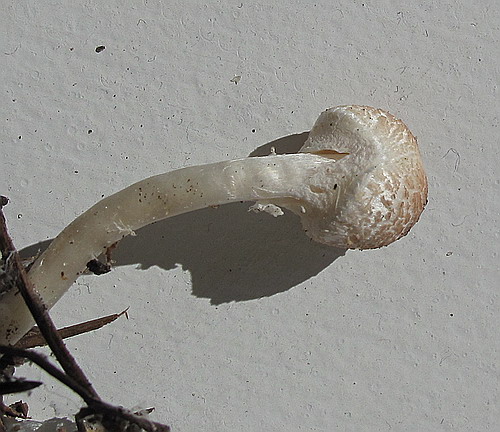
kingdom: Fungi
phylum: Basidiomycota
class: Agaricomycetes
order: Agaricales
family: Agaricaceae
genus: Lepiota
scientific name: Lepiota cristata
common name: stinkende parasolhat
